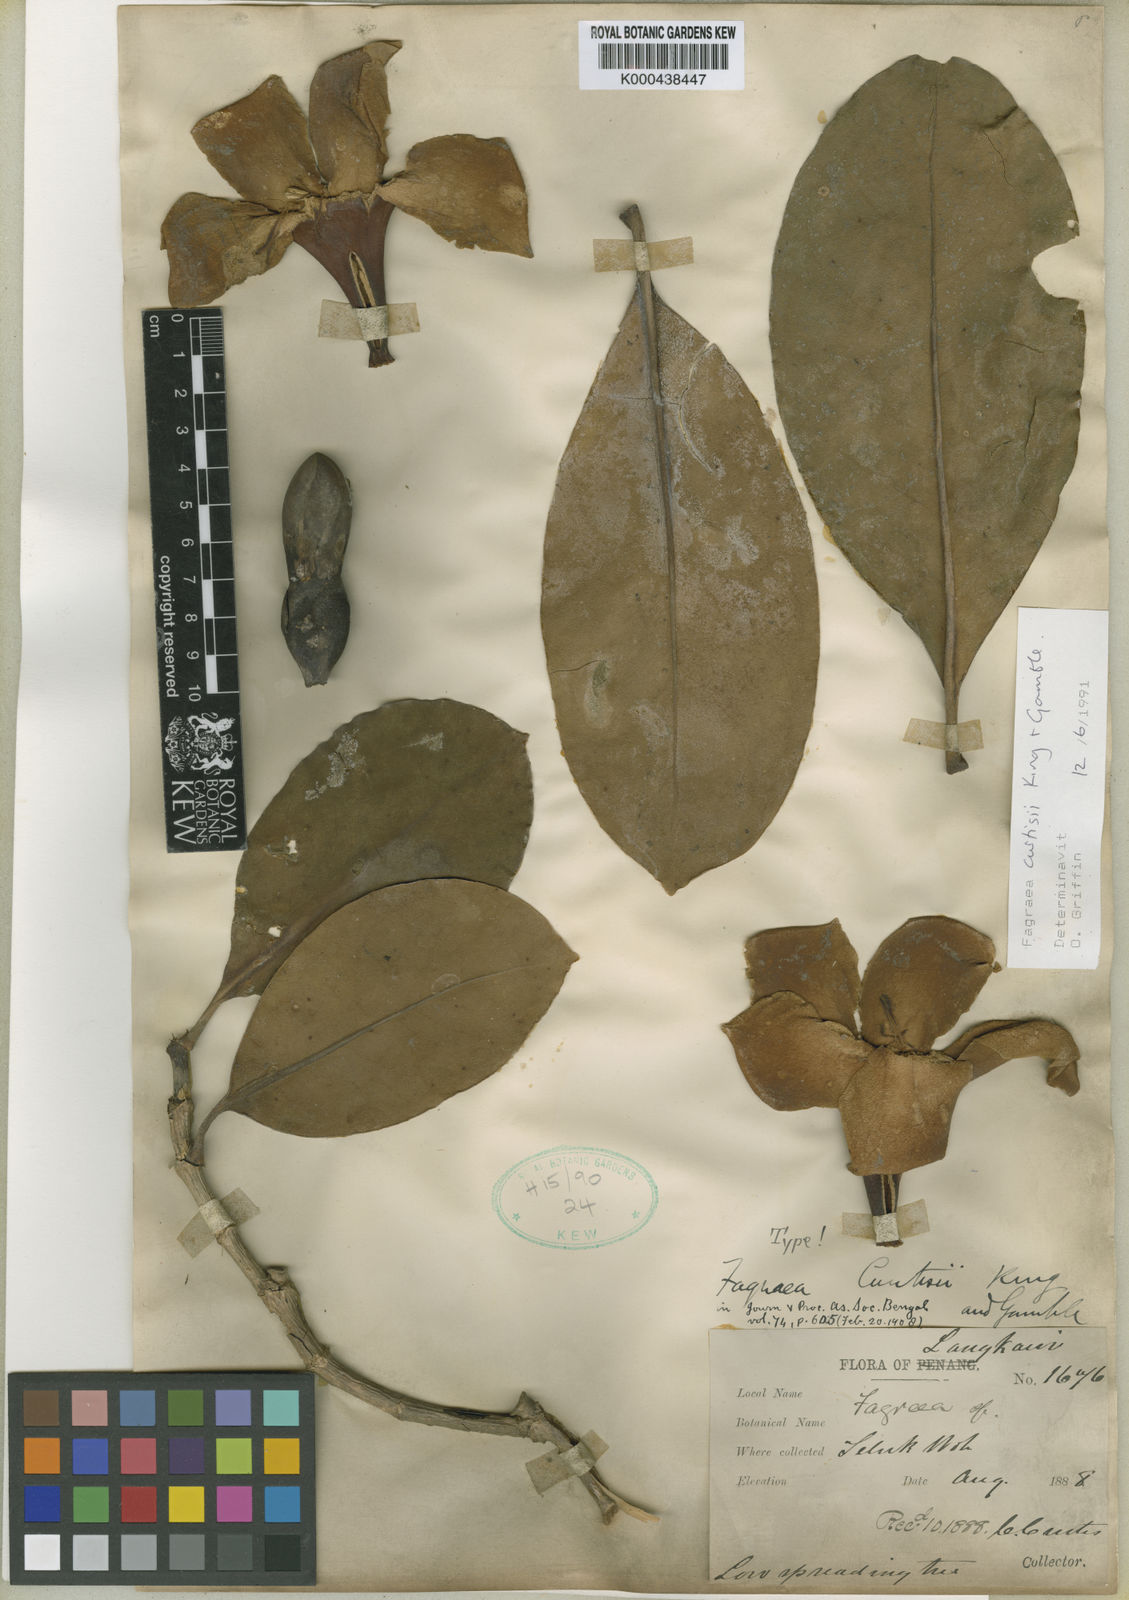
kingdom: Plantae
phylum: Tracheophyta
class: Magnoliopsida
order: Gentianales
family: Gentianaceae
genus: Fagraea
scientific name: Fagraea curtisii
